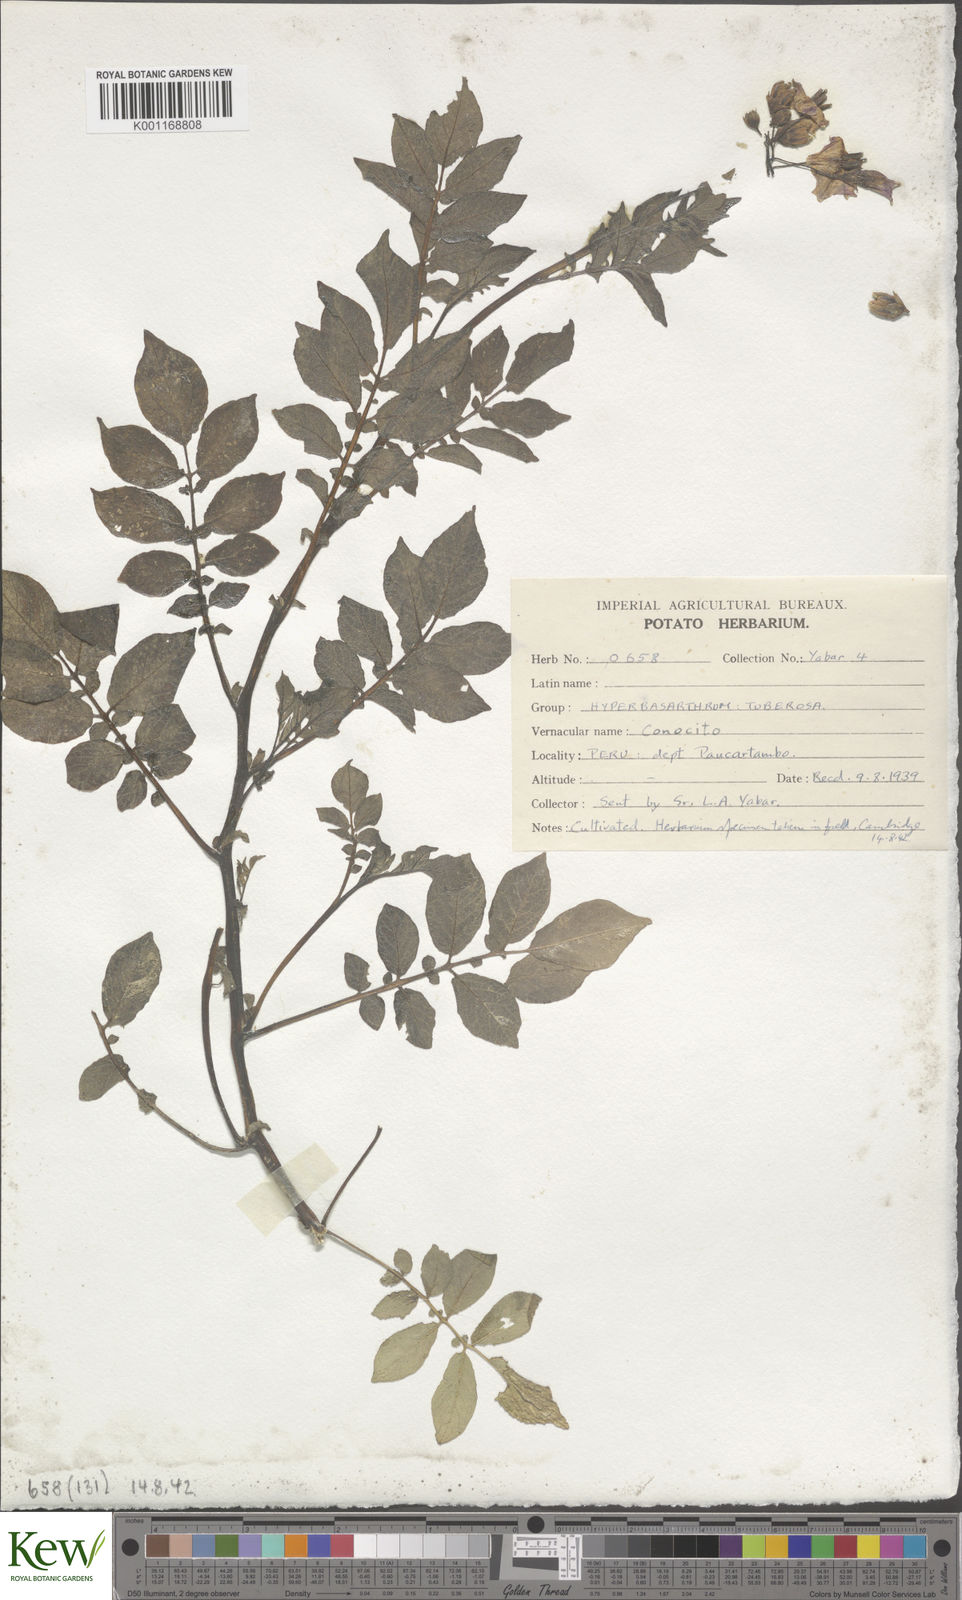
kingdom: Plantae
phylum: Tracheophyta
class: Magnoliopsida
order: Solanales
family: Solanaceae
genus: Solanum
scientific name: Solanum chaucha
